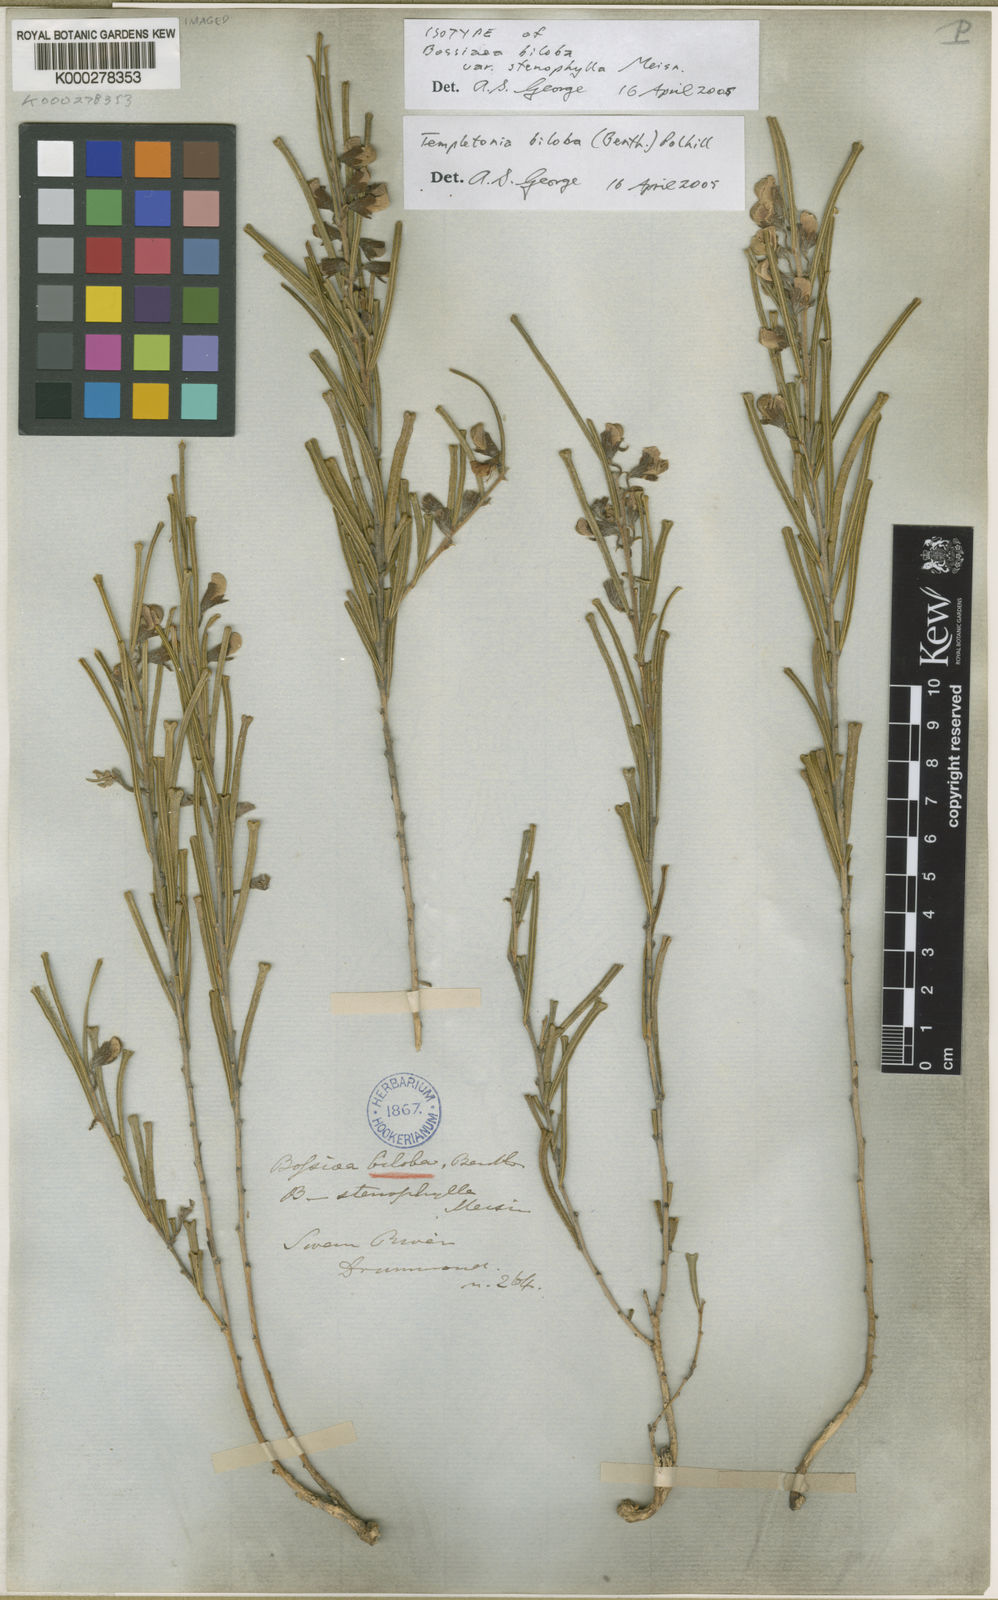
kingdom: Plantae
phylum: Tracheophyta
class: Magnoliopsida
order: Fabales
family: Fabaceae
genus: Cristonia
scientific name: Cristonia biloba
